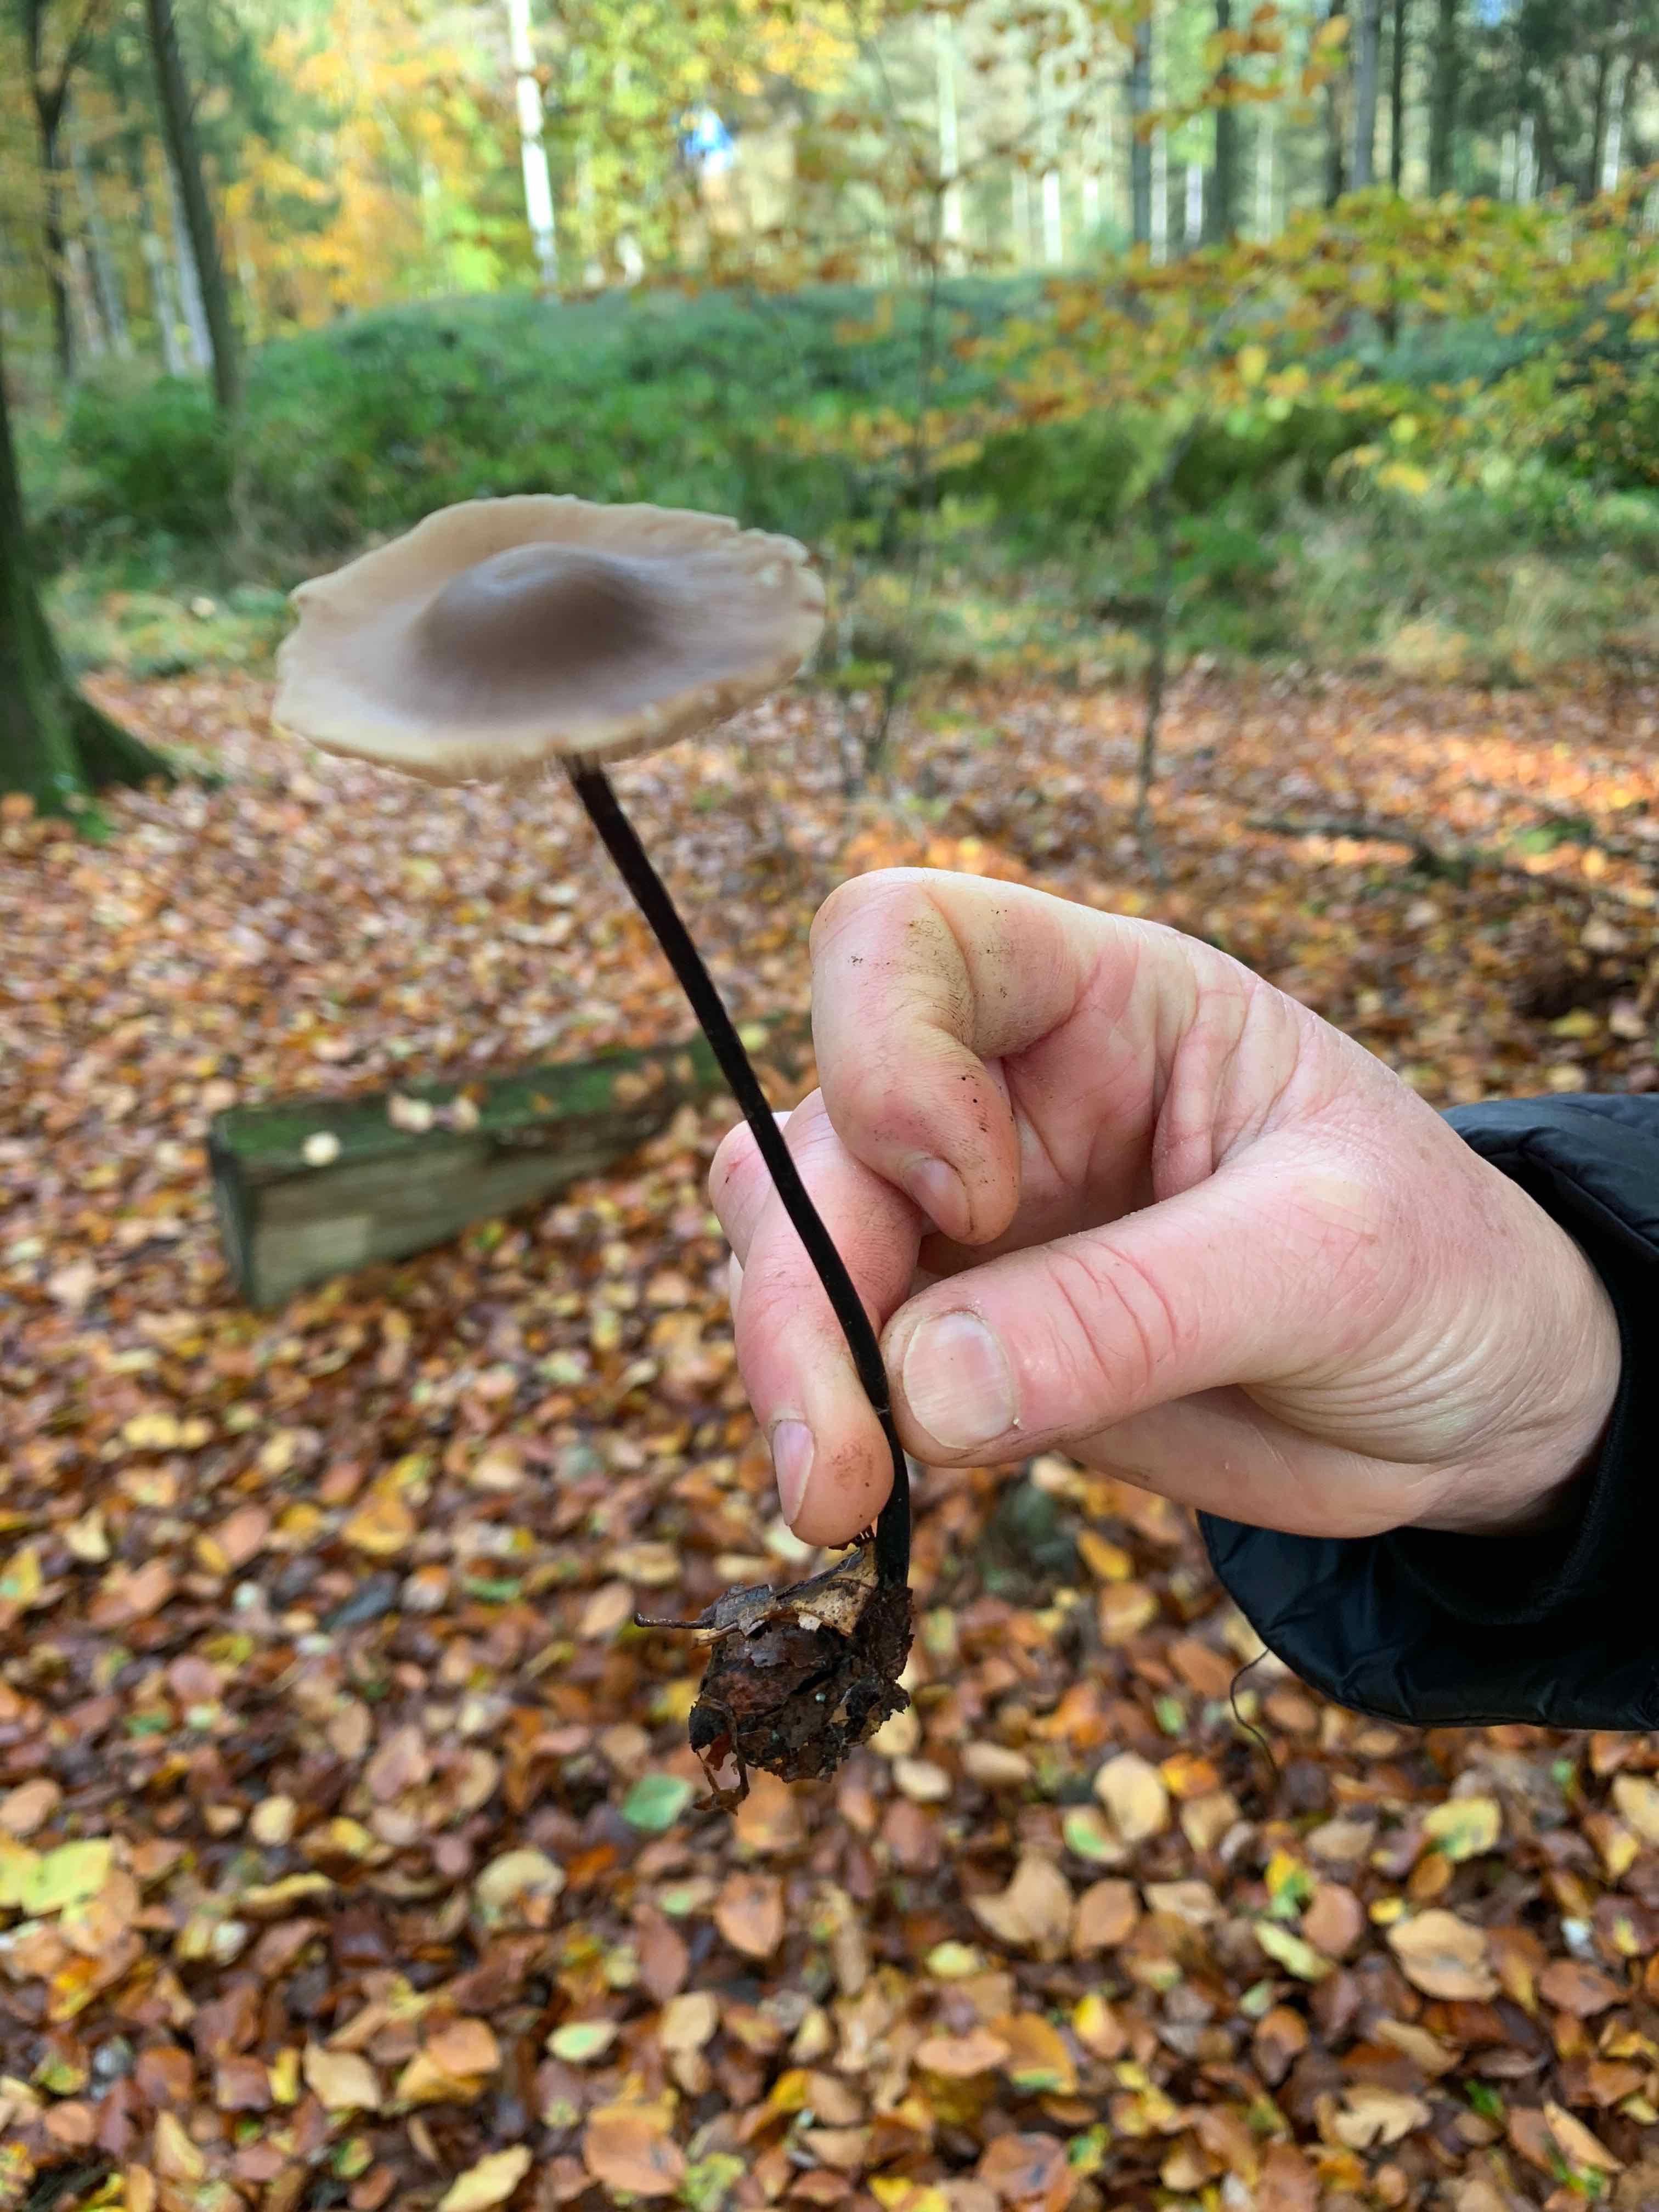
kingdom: Fungi
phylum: Basidiomycota
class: Agaricomycetes
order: Agaricales
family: Omphalotaceae
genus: Mycetinis
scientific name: Mycetinis alliaceus
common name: stor løghat
